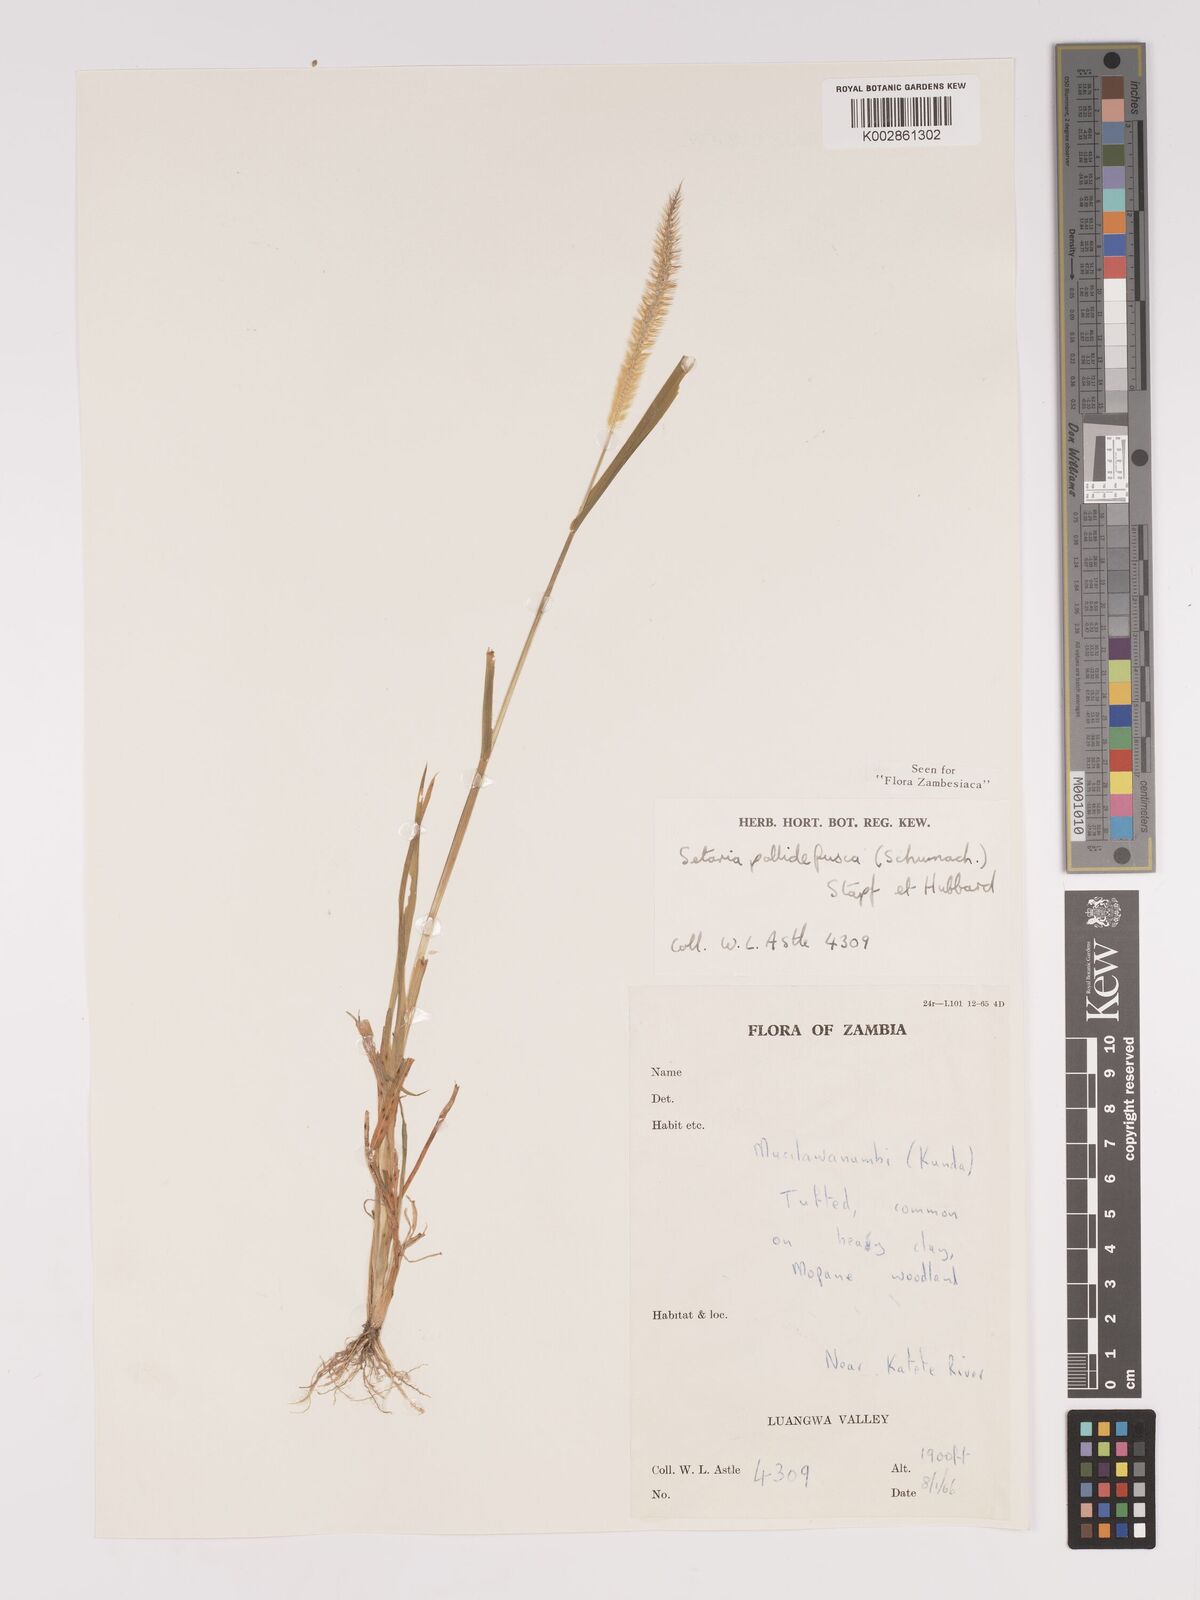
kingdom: Plantae
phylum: Tracheophyta
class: Liliopsida
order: Poales
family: Poaceae
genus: Setaria
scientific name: Setaria pumila
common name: Yellow bristle-grass
